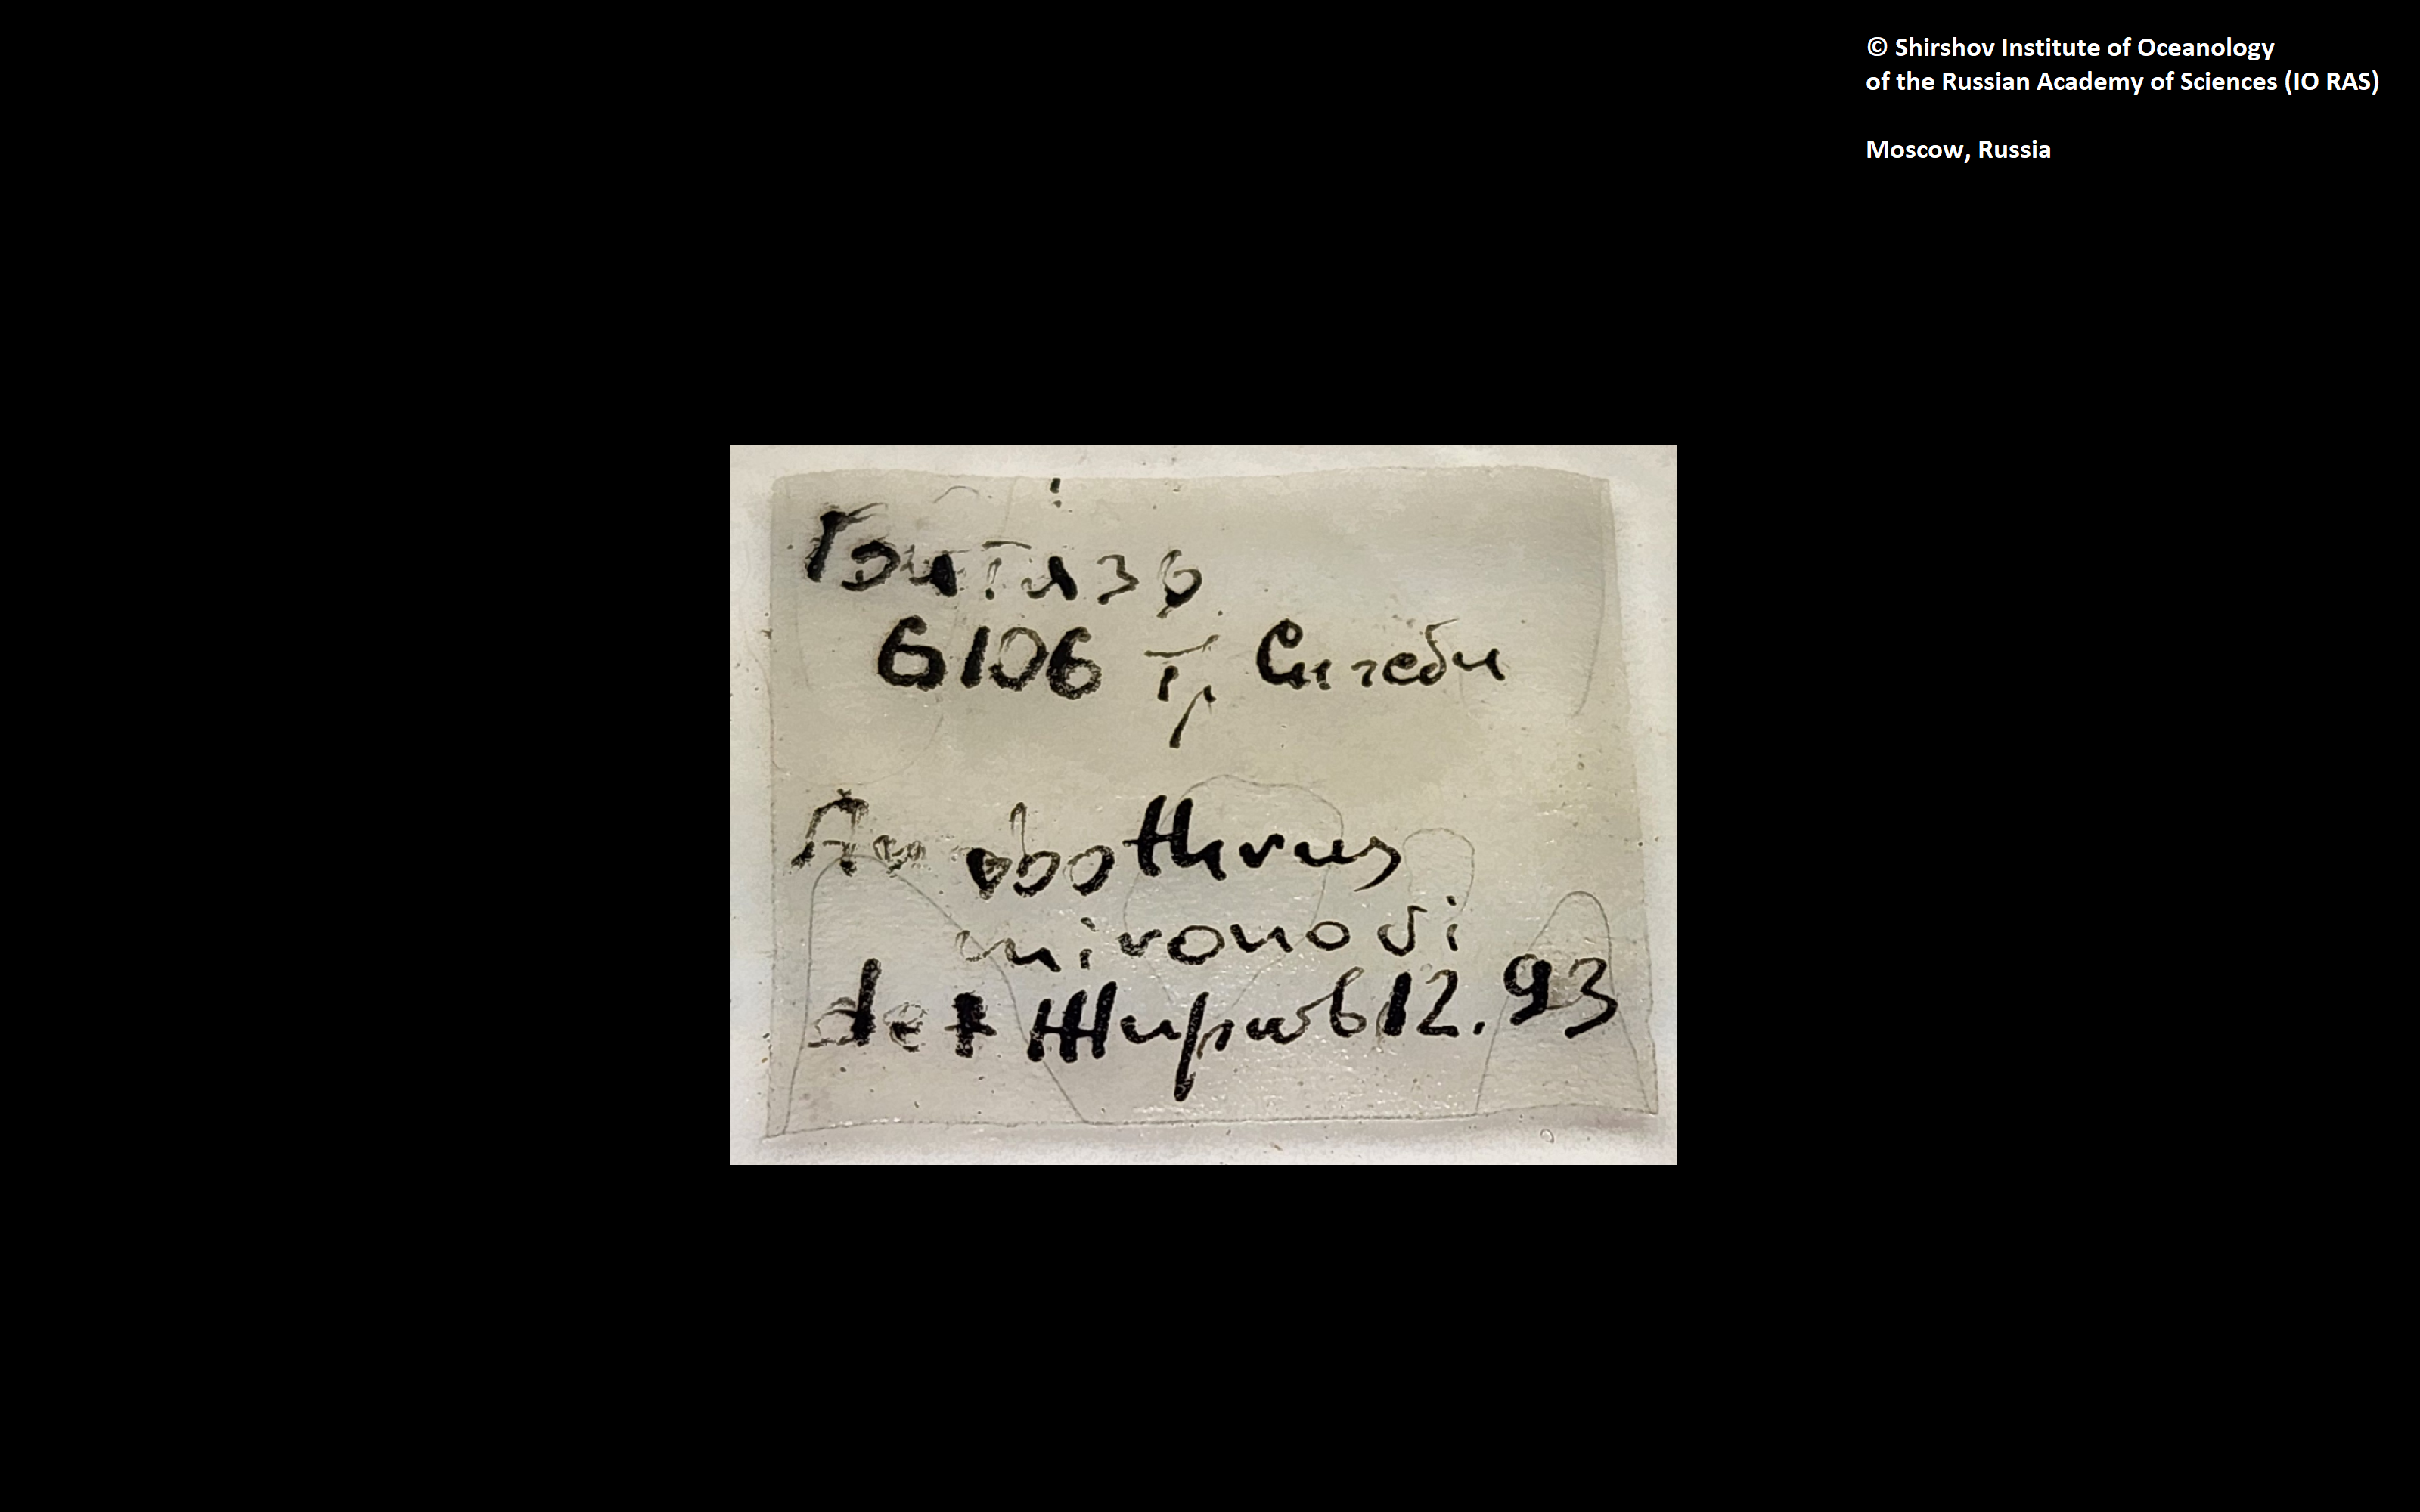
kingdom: Animalia
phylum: Annelida
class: Polychaeta
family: Ampharetidae
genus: Anobothrus
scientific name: Anobothrus mironovi
